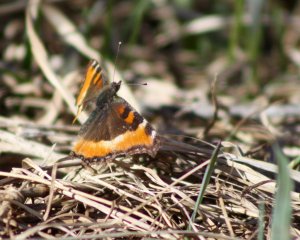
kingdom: Animalia
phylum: Arthropoda
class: Insecta
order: Lepidoptera
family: Nymphalidae
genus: Aglais
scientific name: Aglais milberti
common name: Milbert's Tortoiseshell
